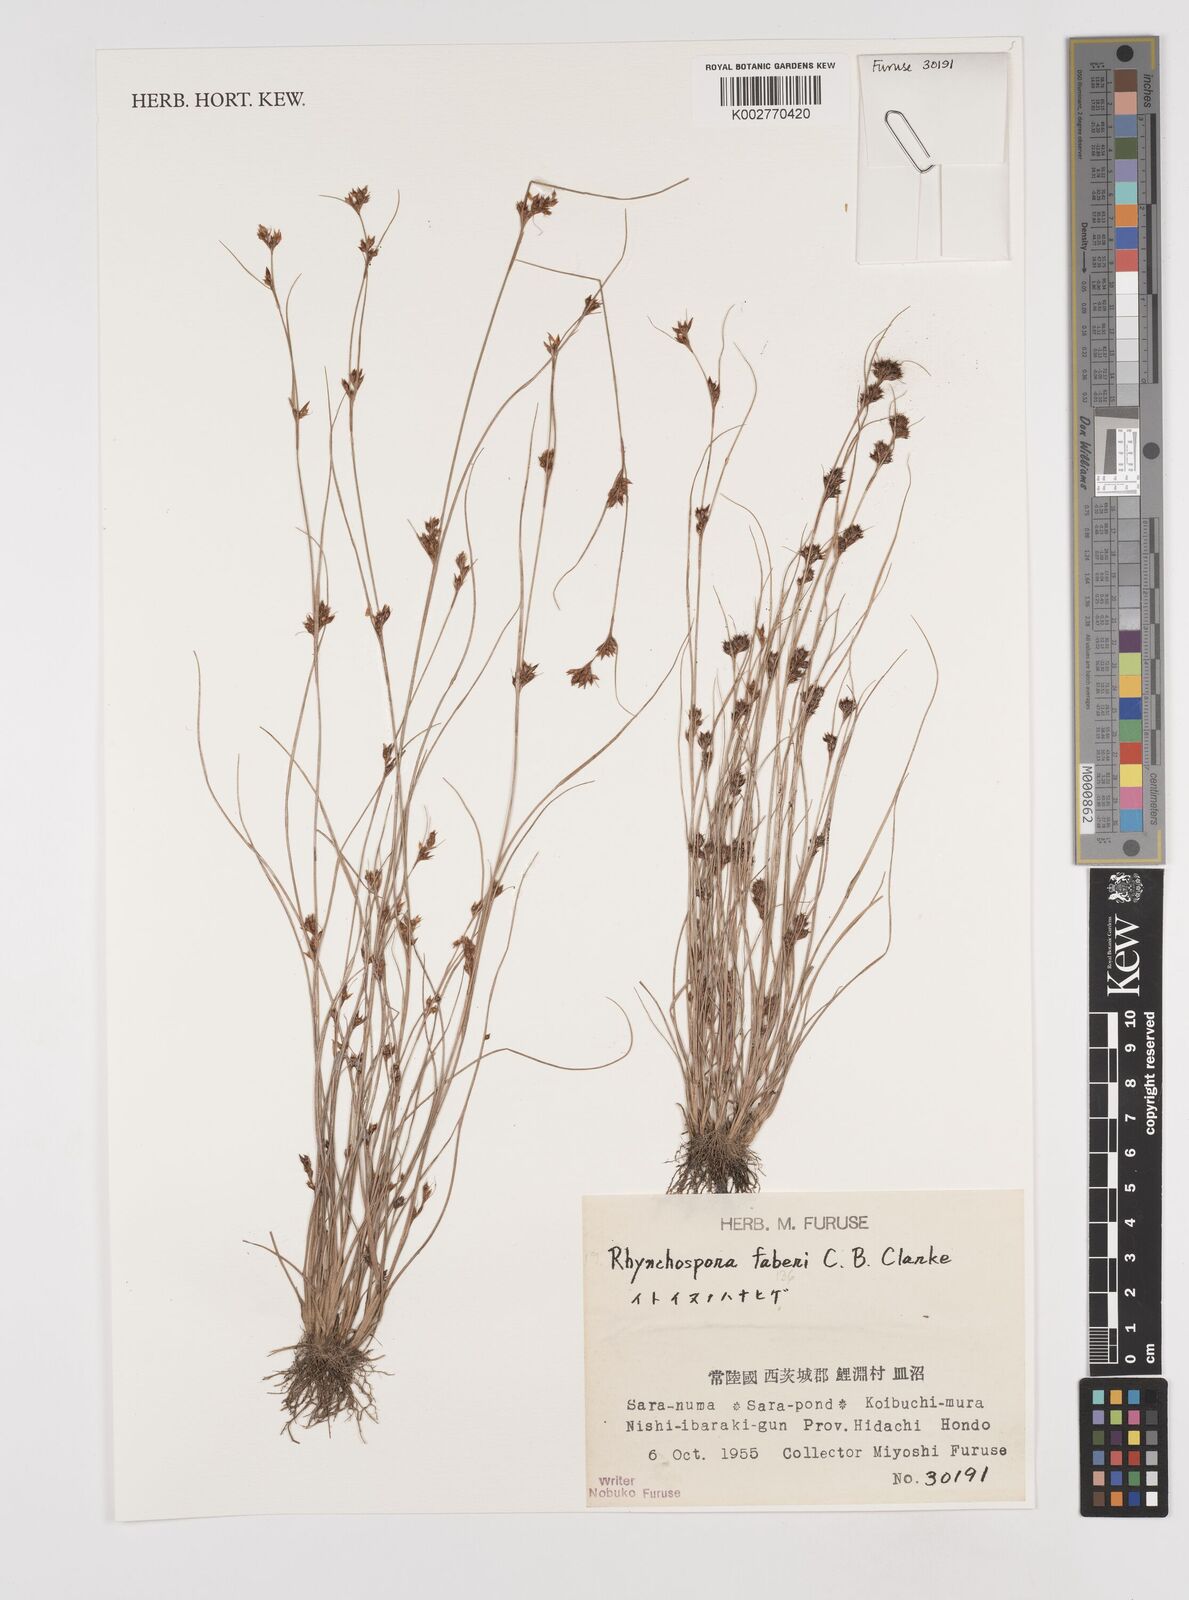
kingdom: Plantae
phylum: Tracheophyta
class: Liliopsida
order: Poales
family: Cyperaceae
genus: Rhynchospora
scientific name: Rhynchospora fauriei
